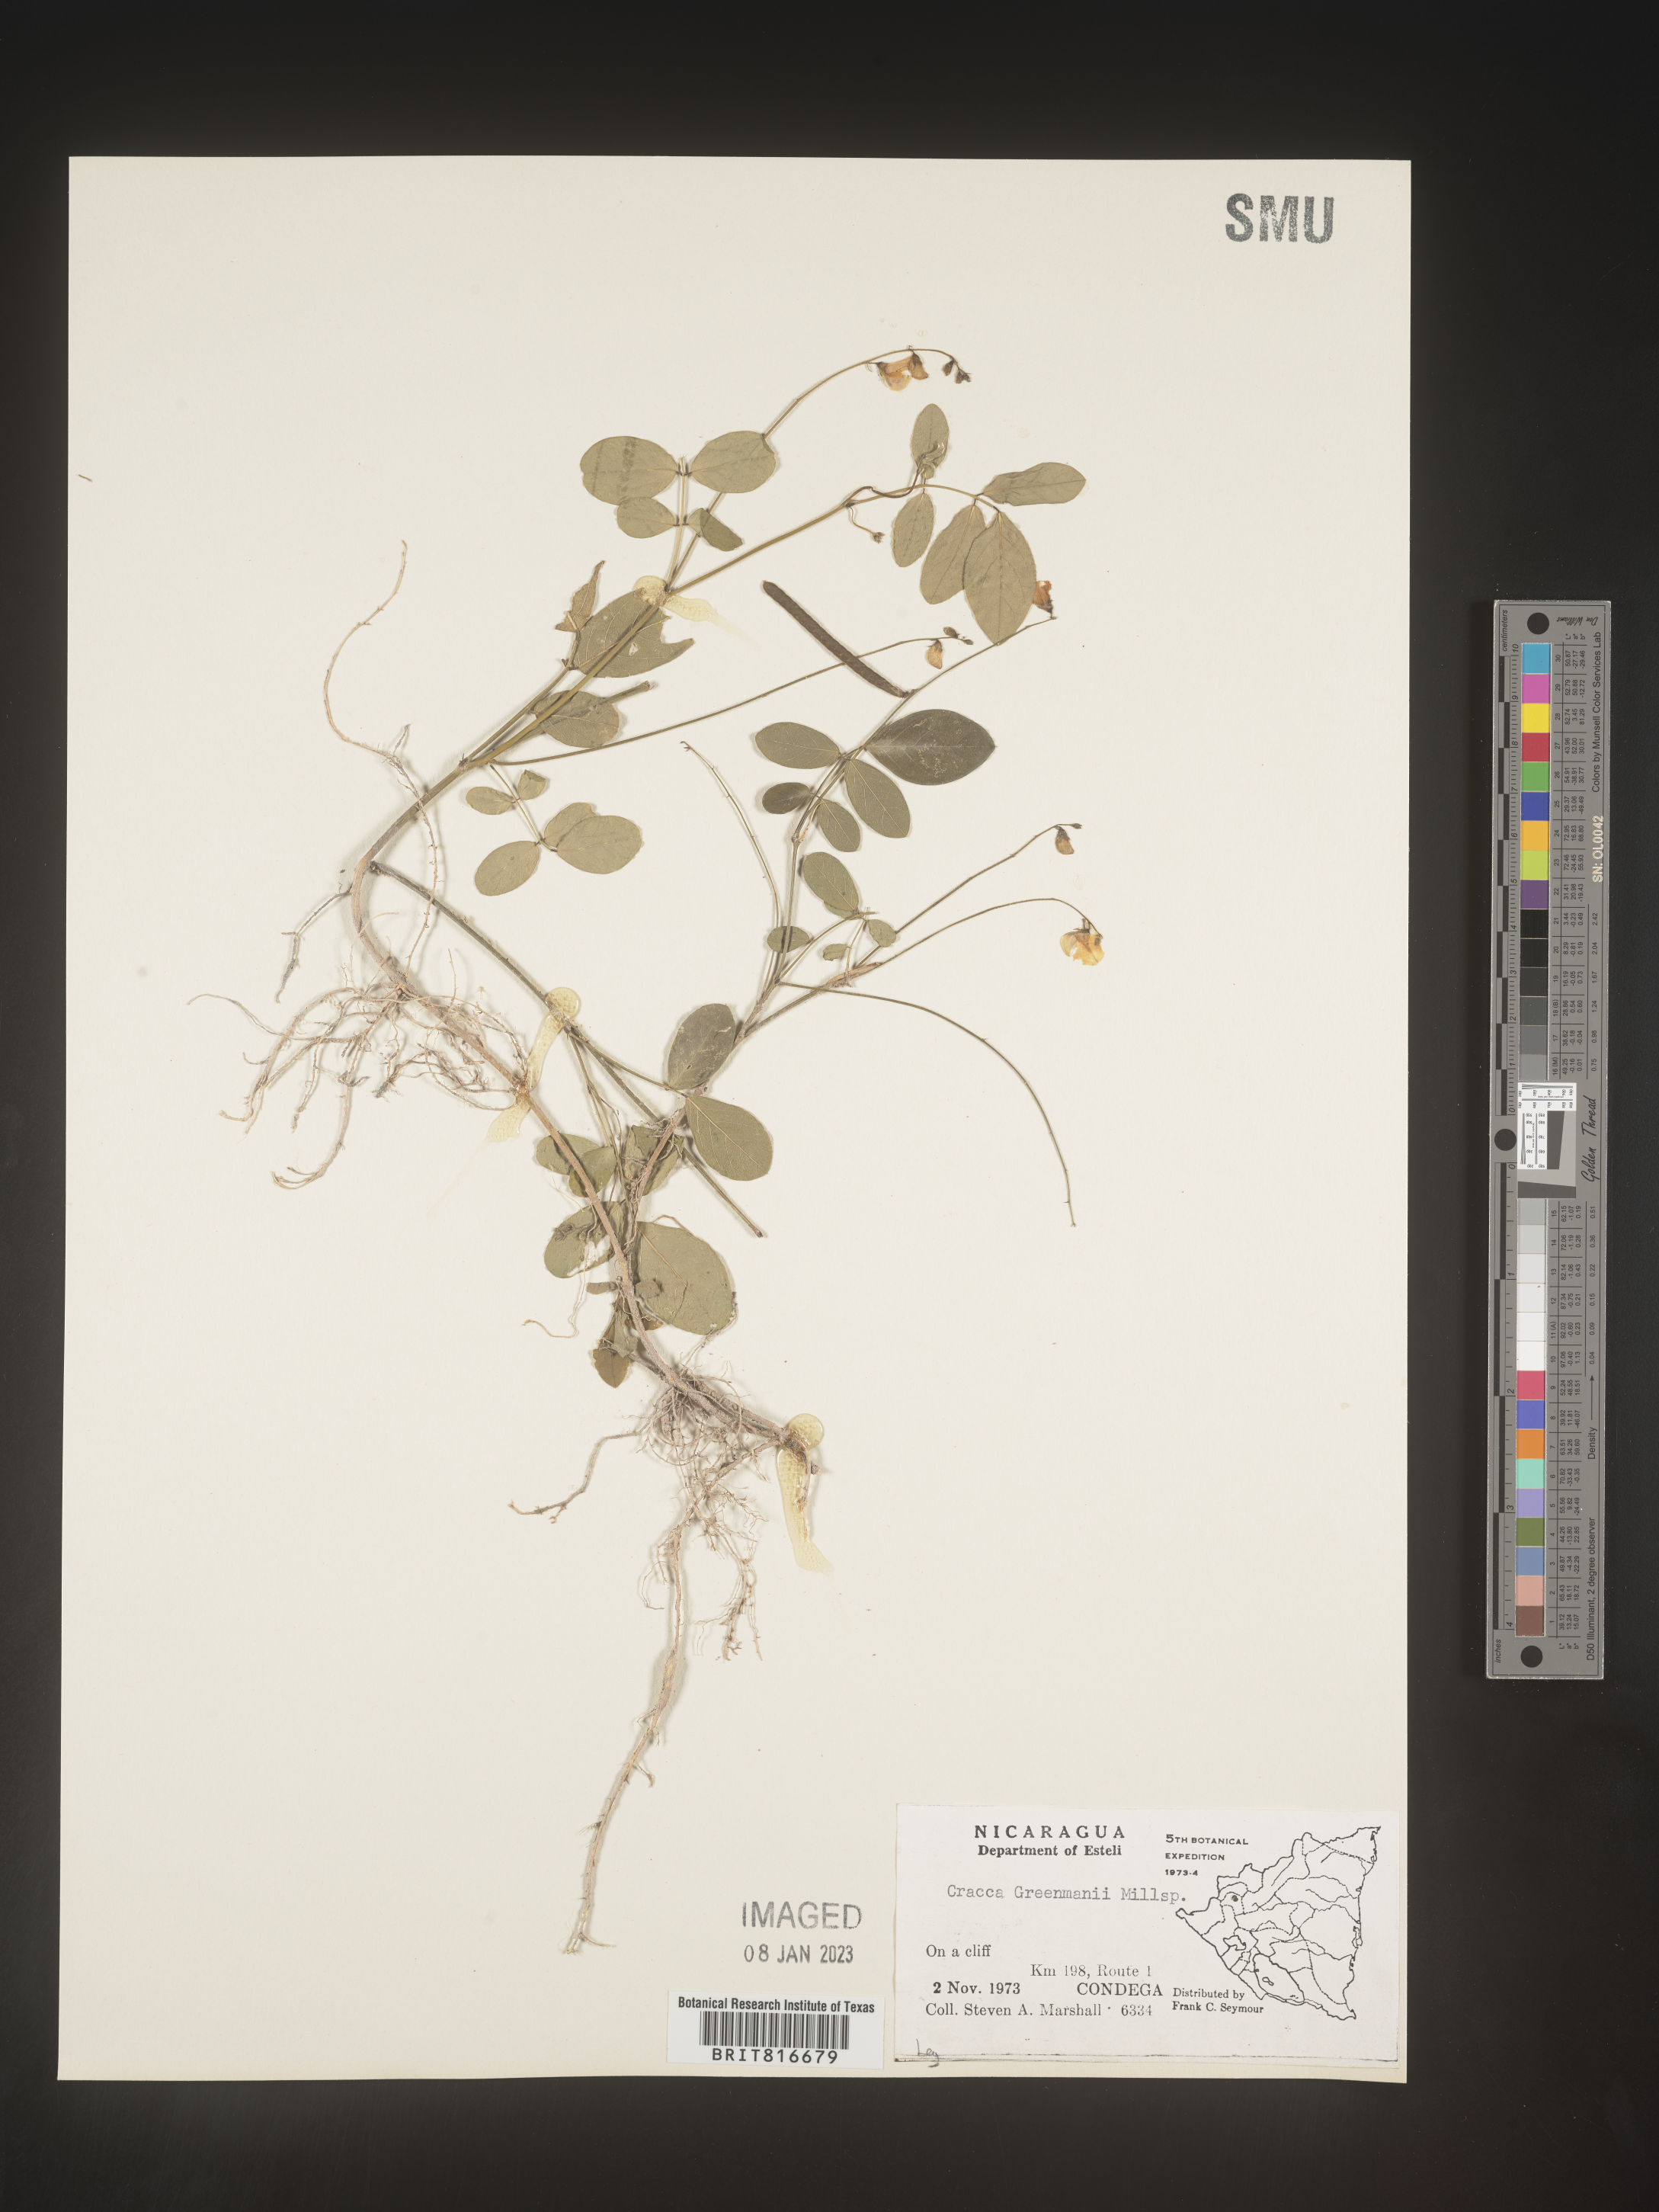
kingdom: Plantae
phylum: Tracheophyta
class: Magnoliopsida
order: Fabales
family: Fabaceae
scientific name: Fabaceae
